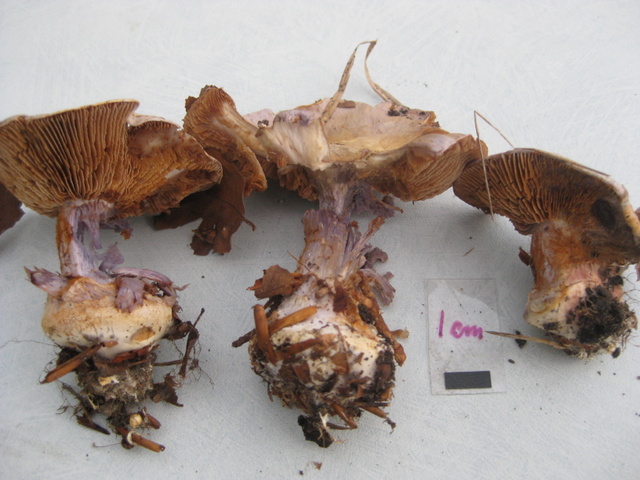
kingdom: Fungi
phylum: Basidiomycota
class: Agaricomycetes
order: Agaricales
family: Cortinariaceae
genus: Cortinarius
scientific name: Cortinarius caerulescens
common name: blåkødet slørhat
